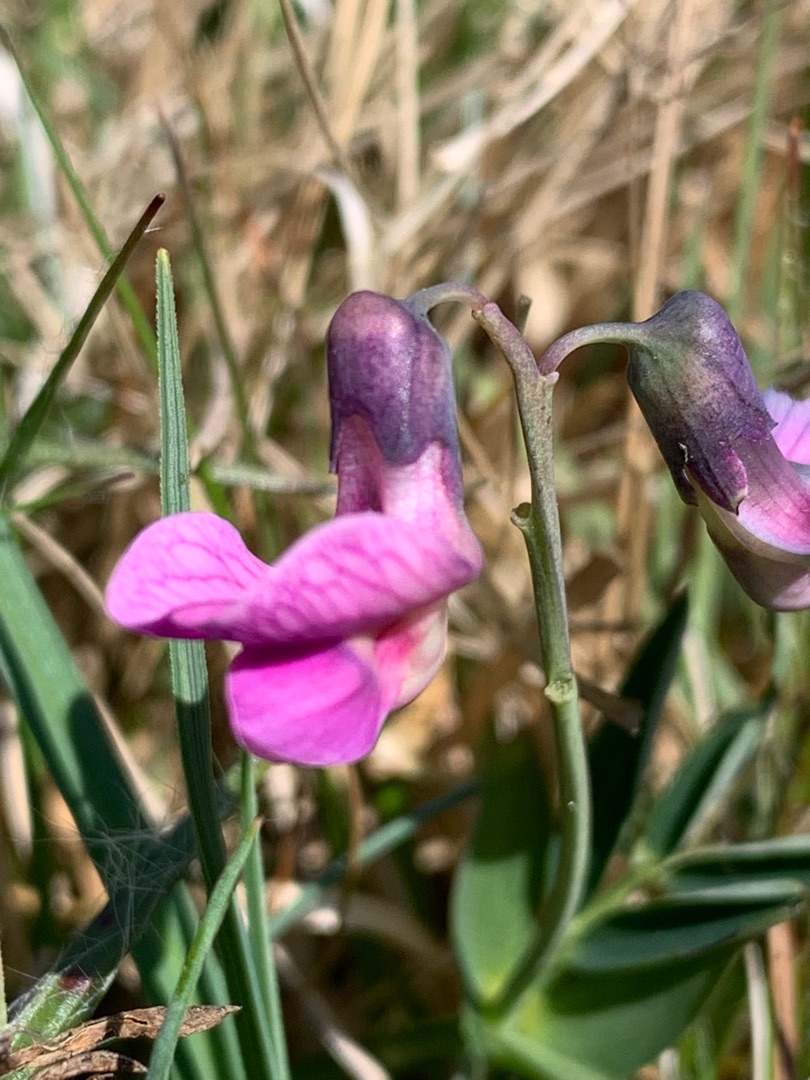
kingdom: Plantae
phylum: Tracheophyta
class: Magnoliopsida
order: Fabales
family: Fabaceae
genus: Lathyrus
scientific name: Lathyrus linifolius
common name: Krat-fladbælg
